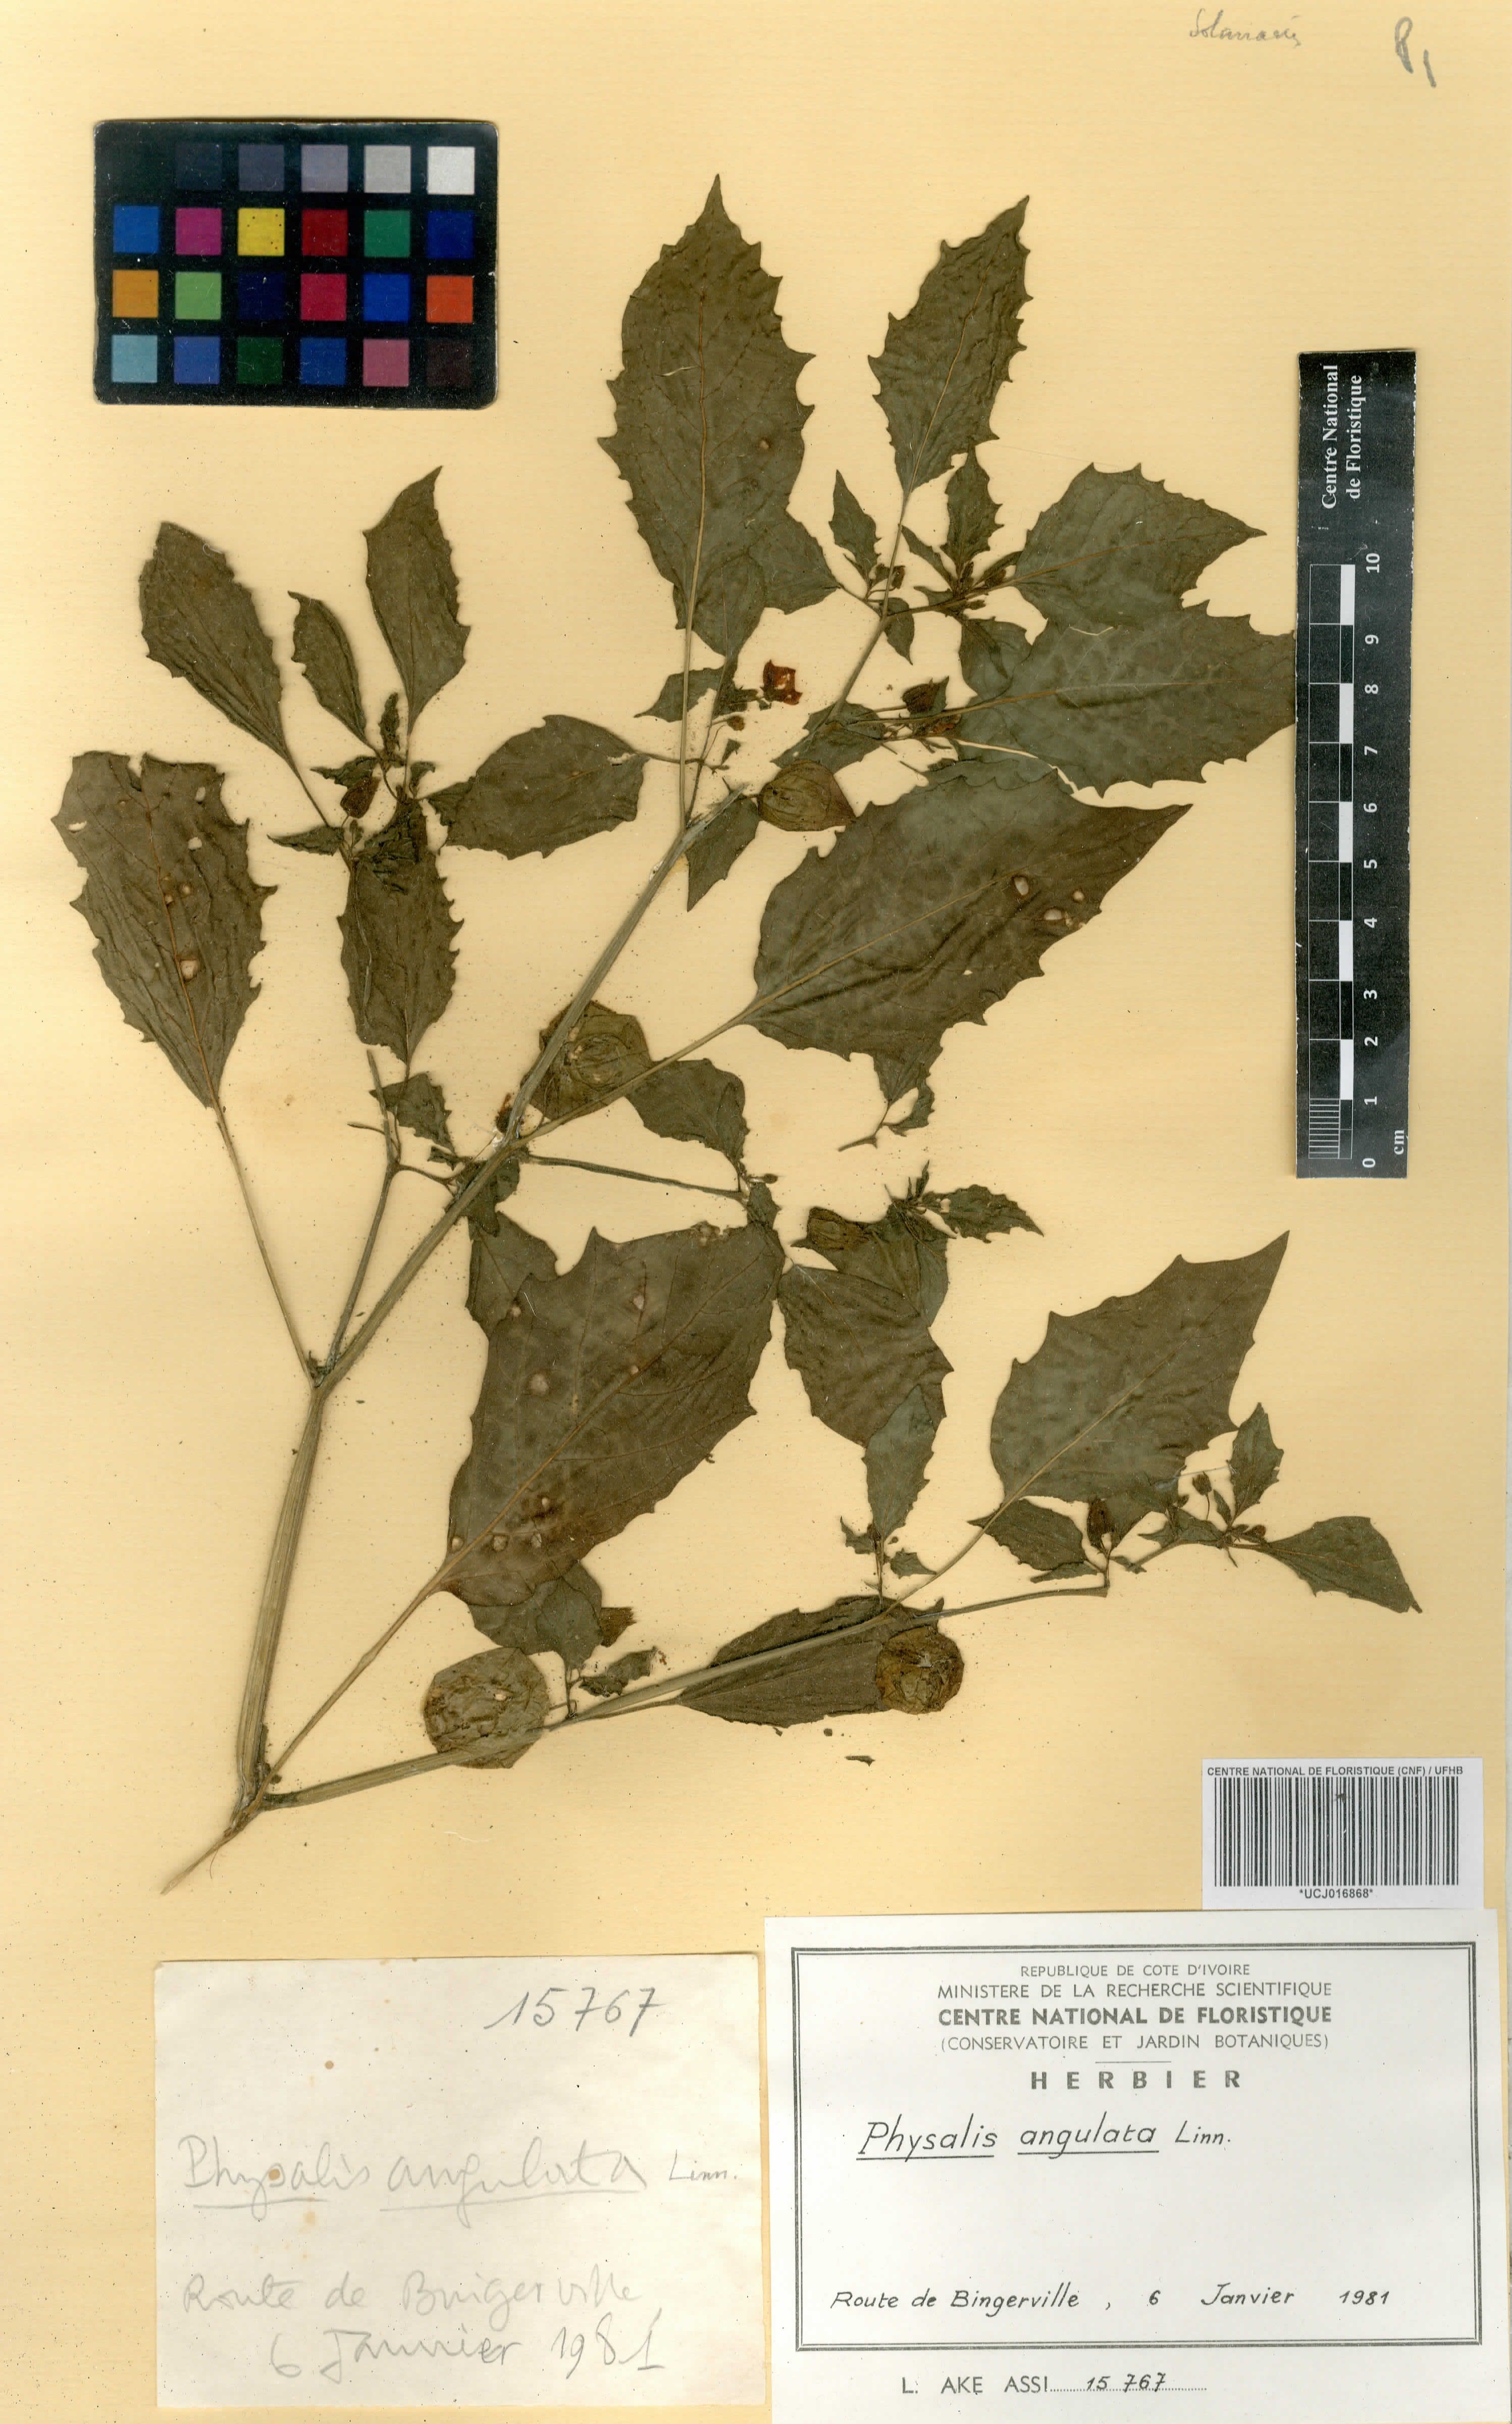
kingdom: Plantae
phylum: Tracheophyta
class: Magnoliopsida
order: Solanales
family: Solanaceae
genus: Physalis
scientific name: Physalis angulata
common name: Angular winter-cherry
